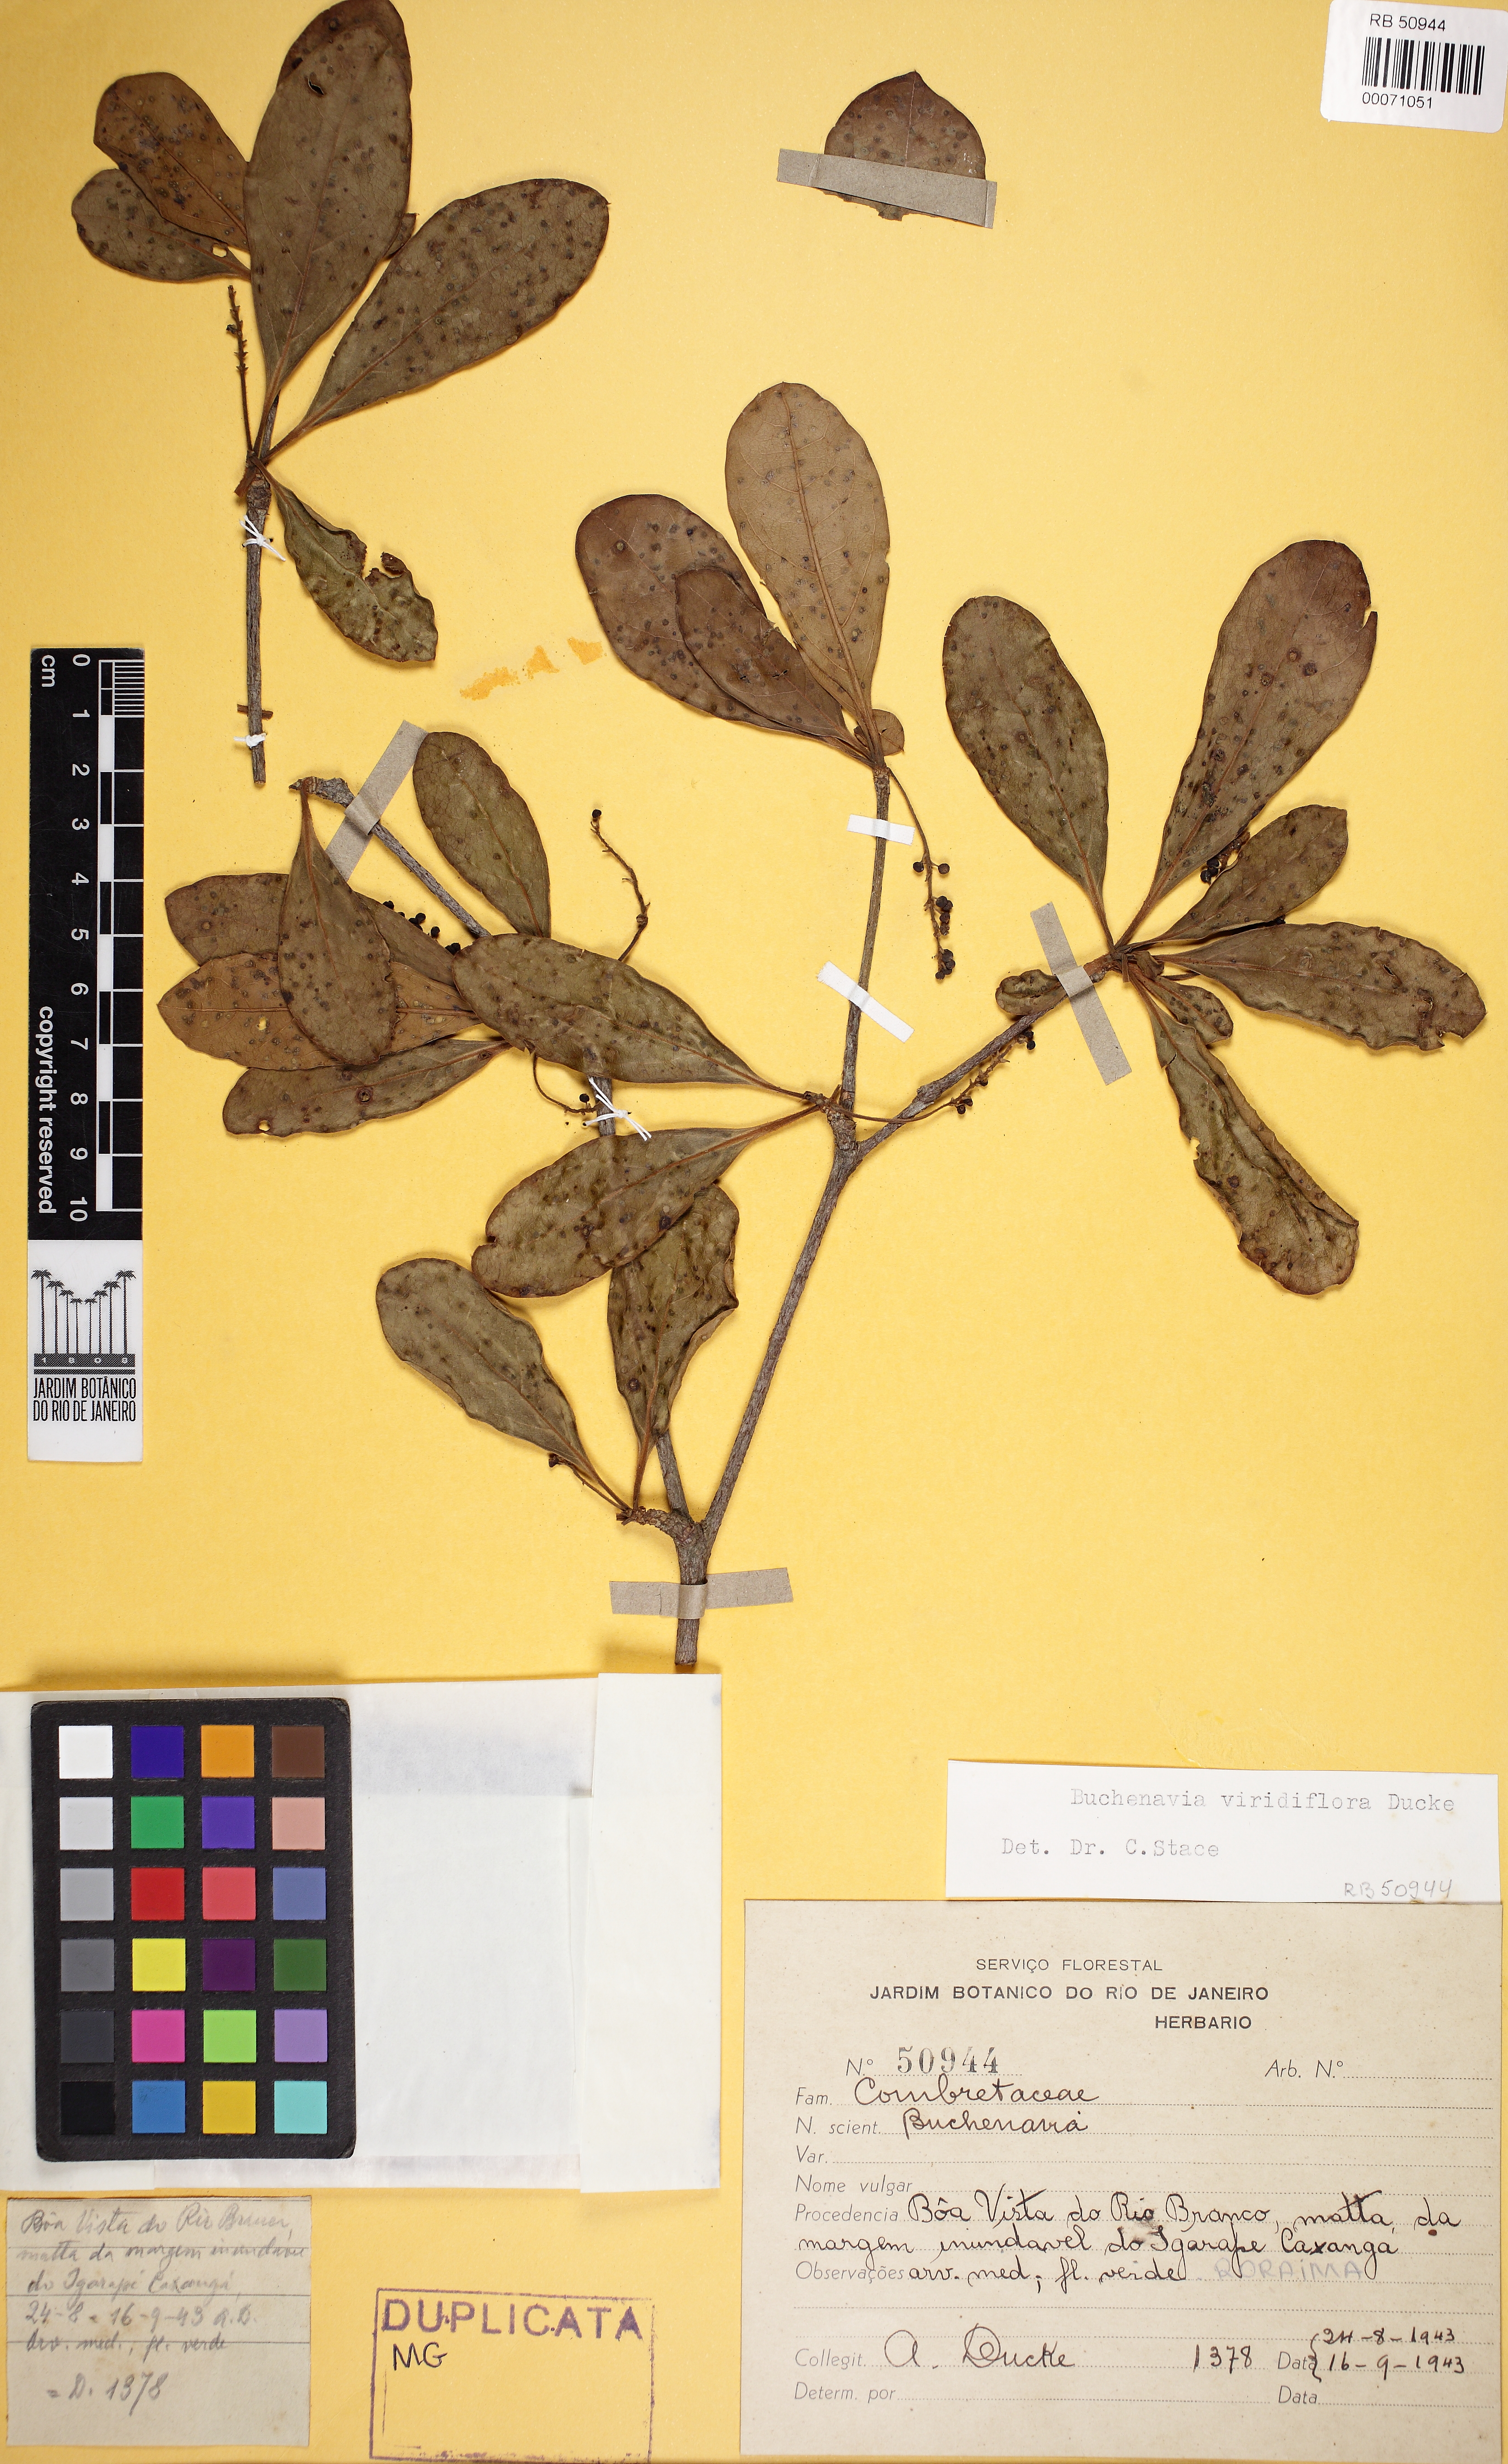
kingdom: Plantae
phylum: Tracheophyta
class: Magnoliopsida
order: Myrtales
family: Combretaceae
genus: Terminalia
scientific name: Terminalia viridiflora
